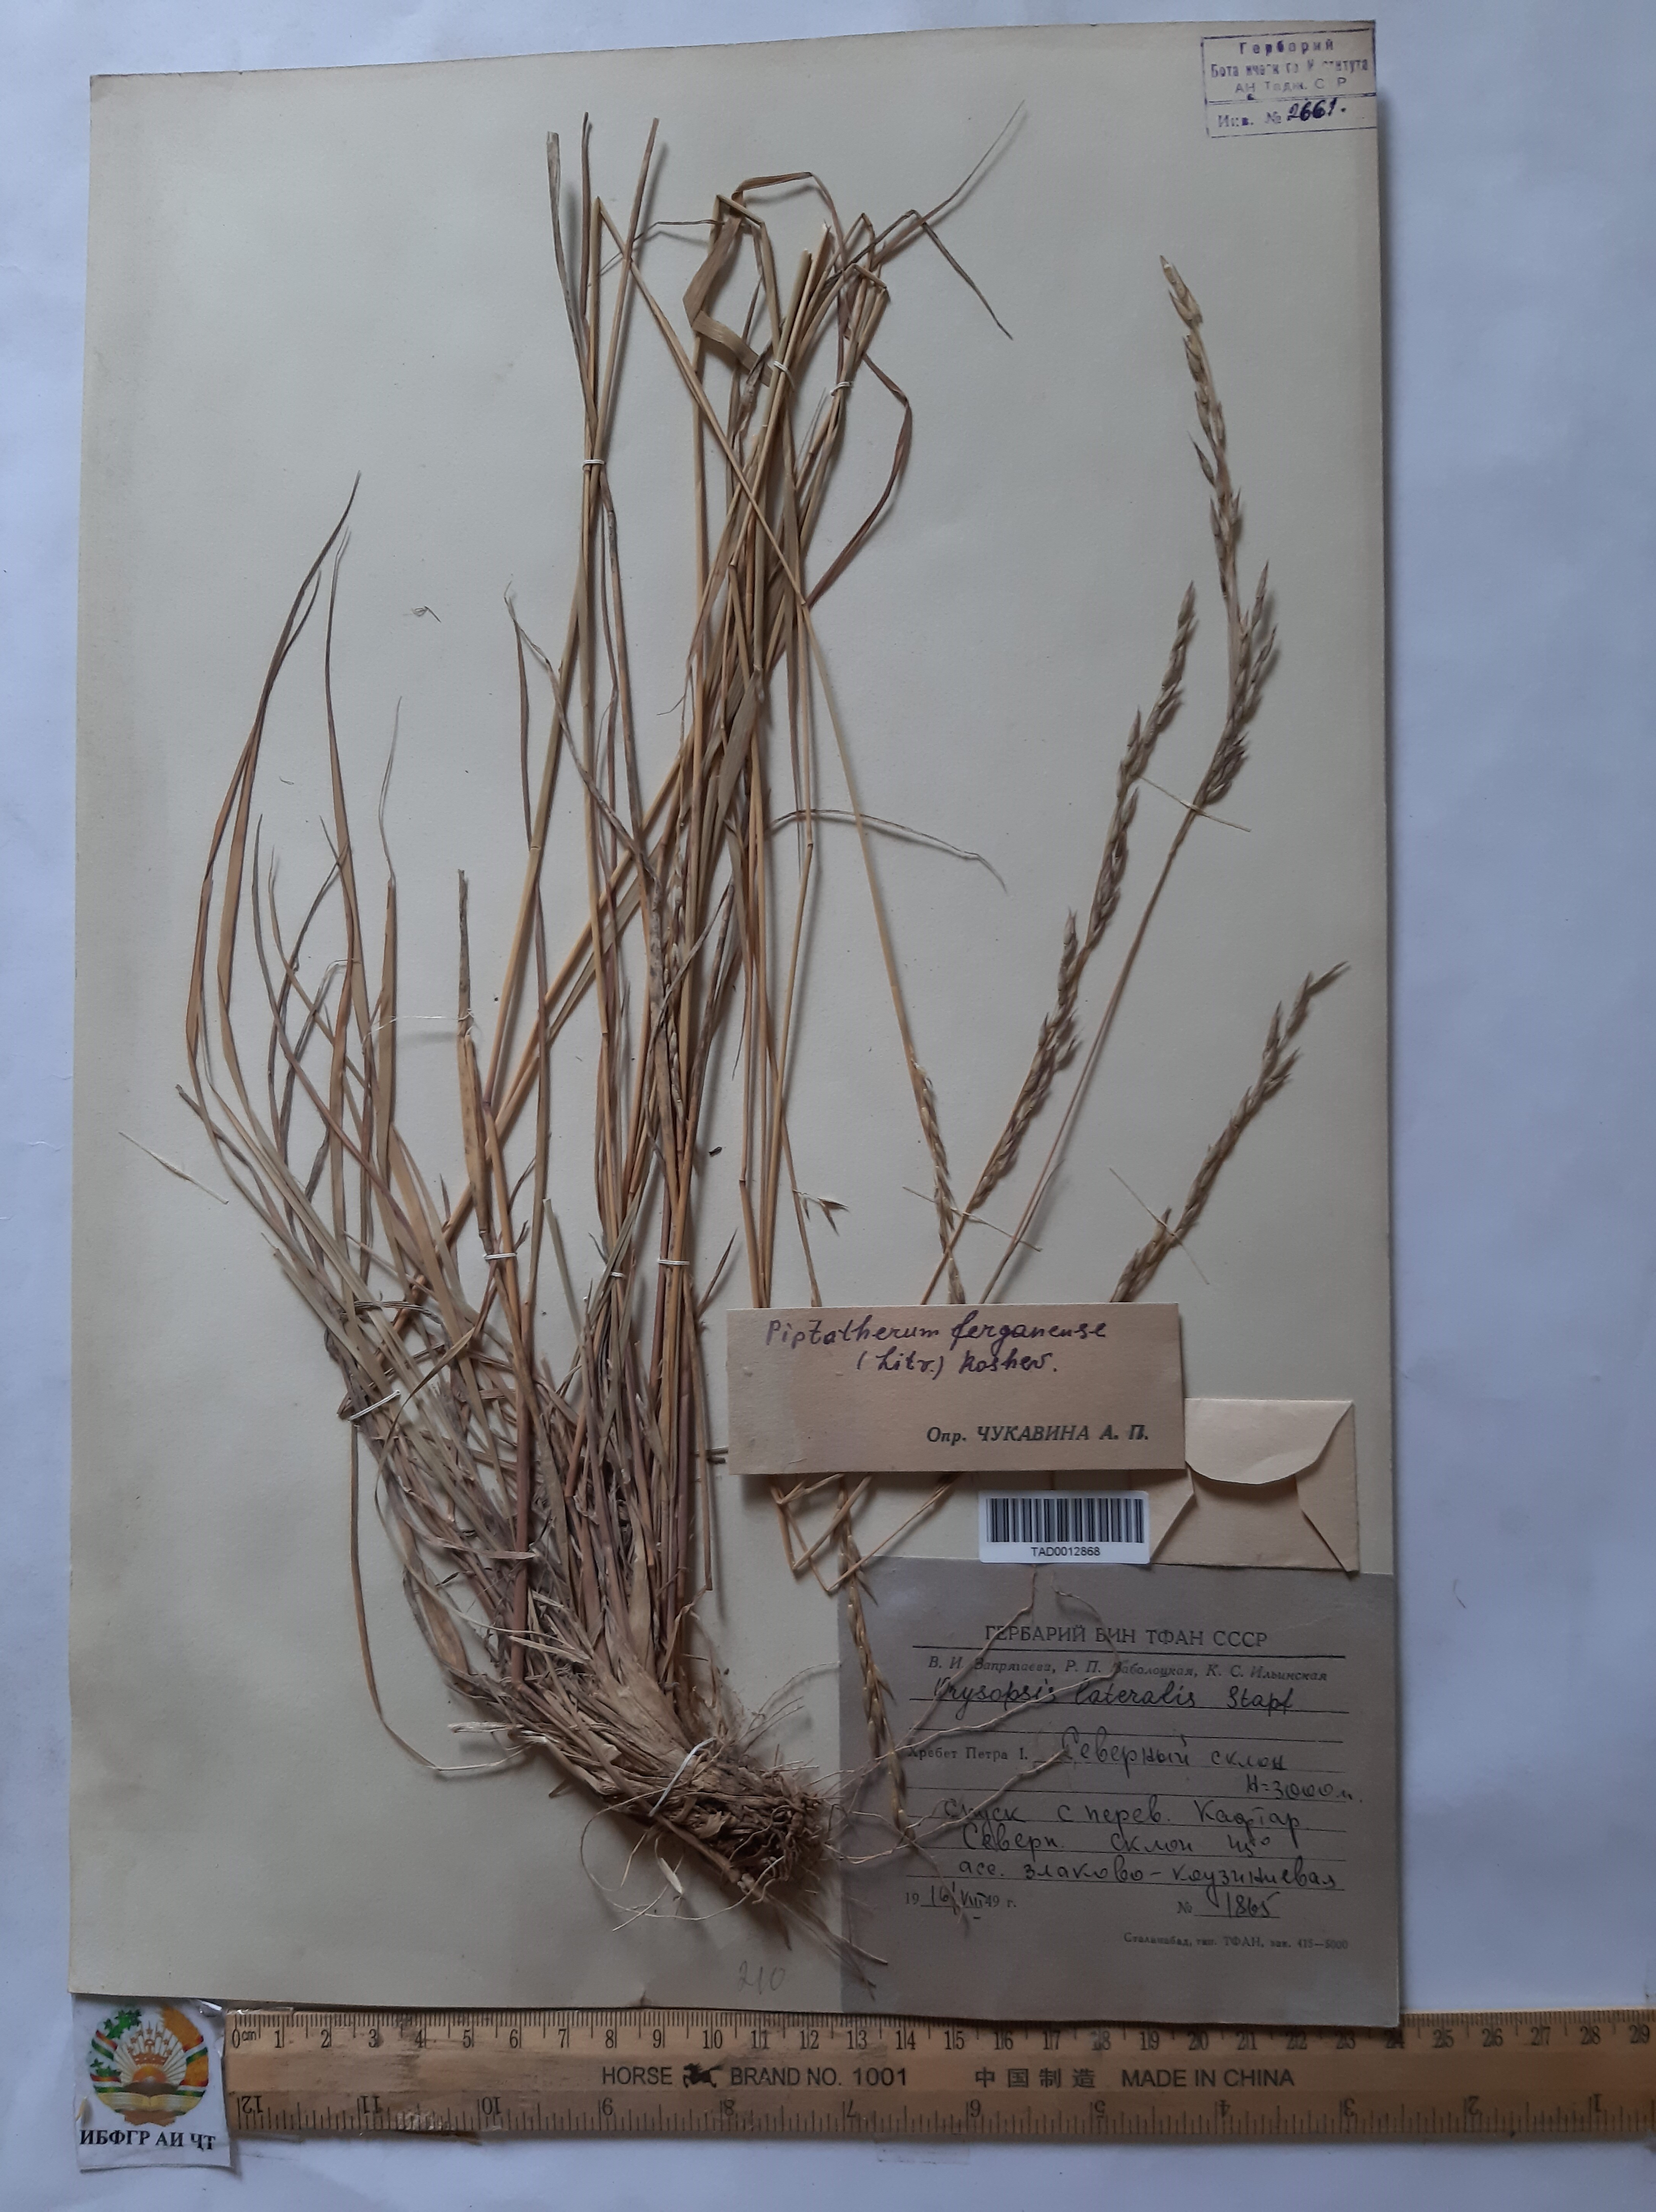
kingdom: Plantae
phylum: Tracheophyta
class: Liliopsida
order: Poales
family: Poaceae
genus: Piptatherum
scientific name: Piptatherum ferganense
